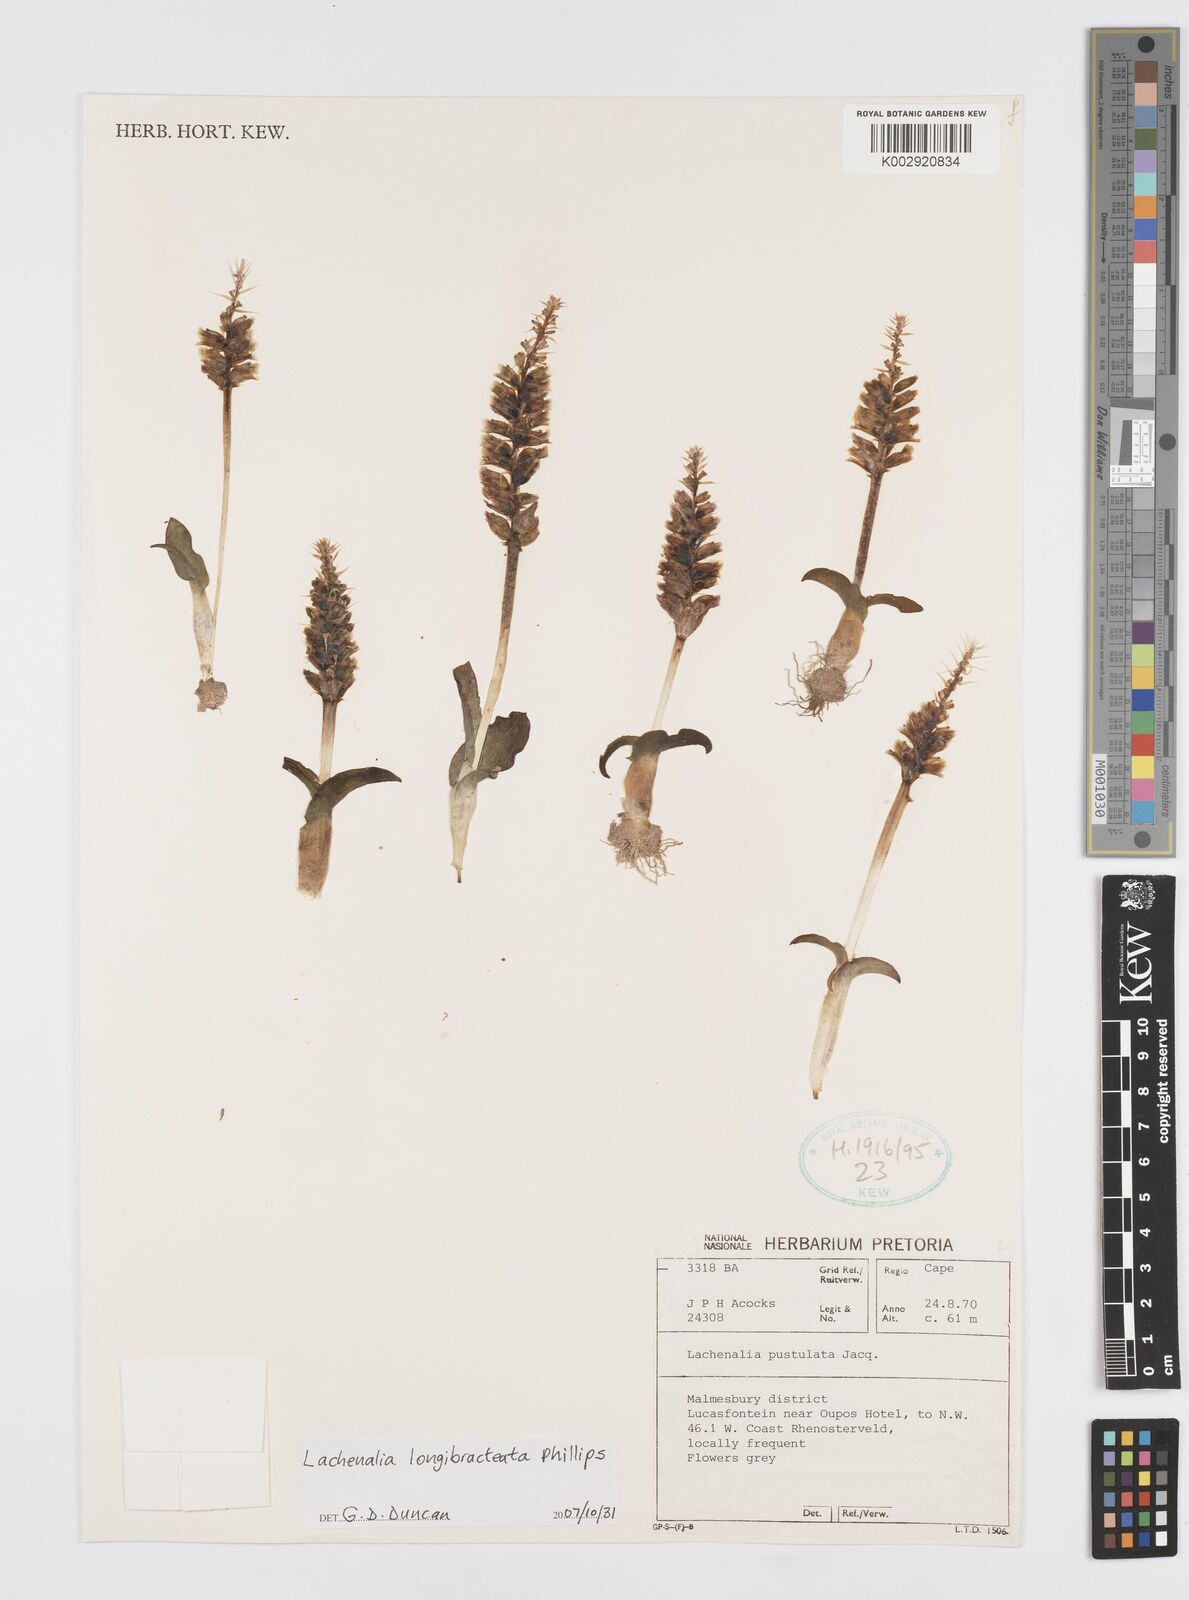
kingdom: Plantae
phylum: Tracheophyta
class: Liliopsida
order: Asparagales
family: Asparagaceae
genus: Lachenalia
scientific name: Lachenalia longibracteata
